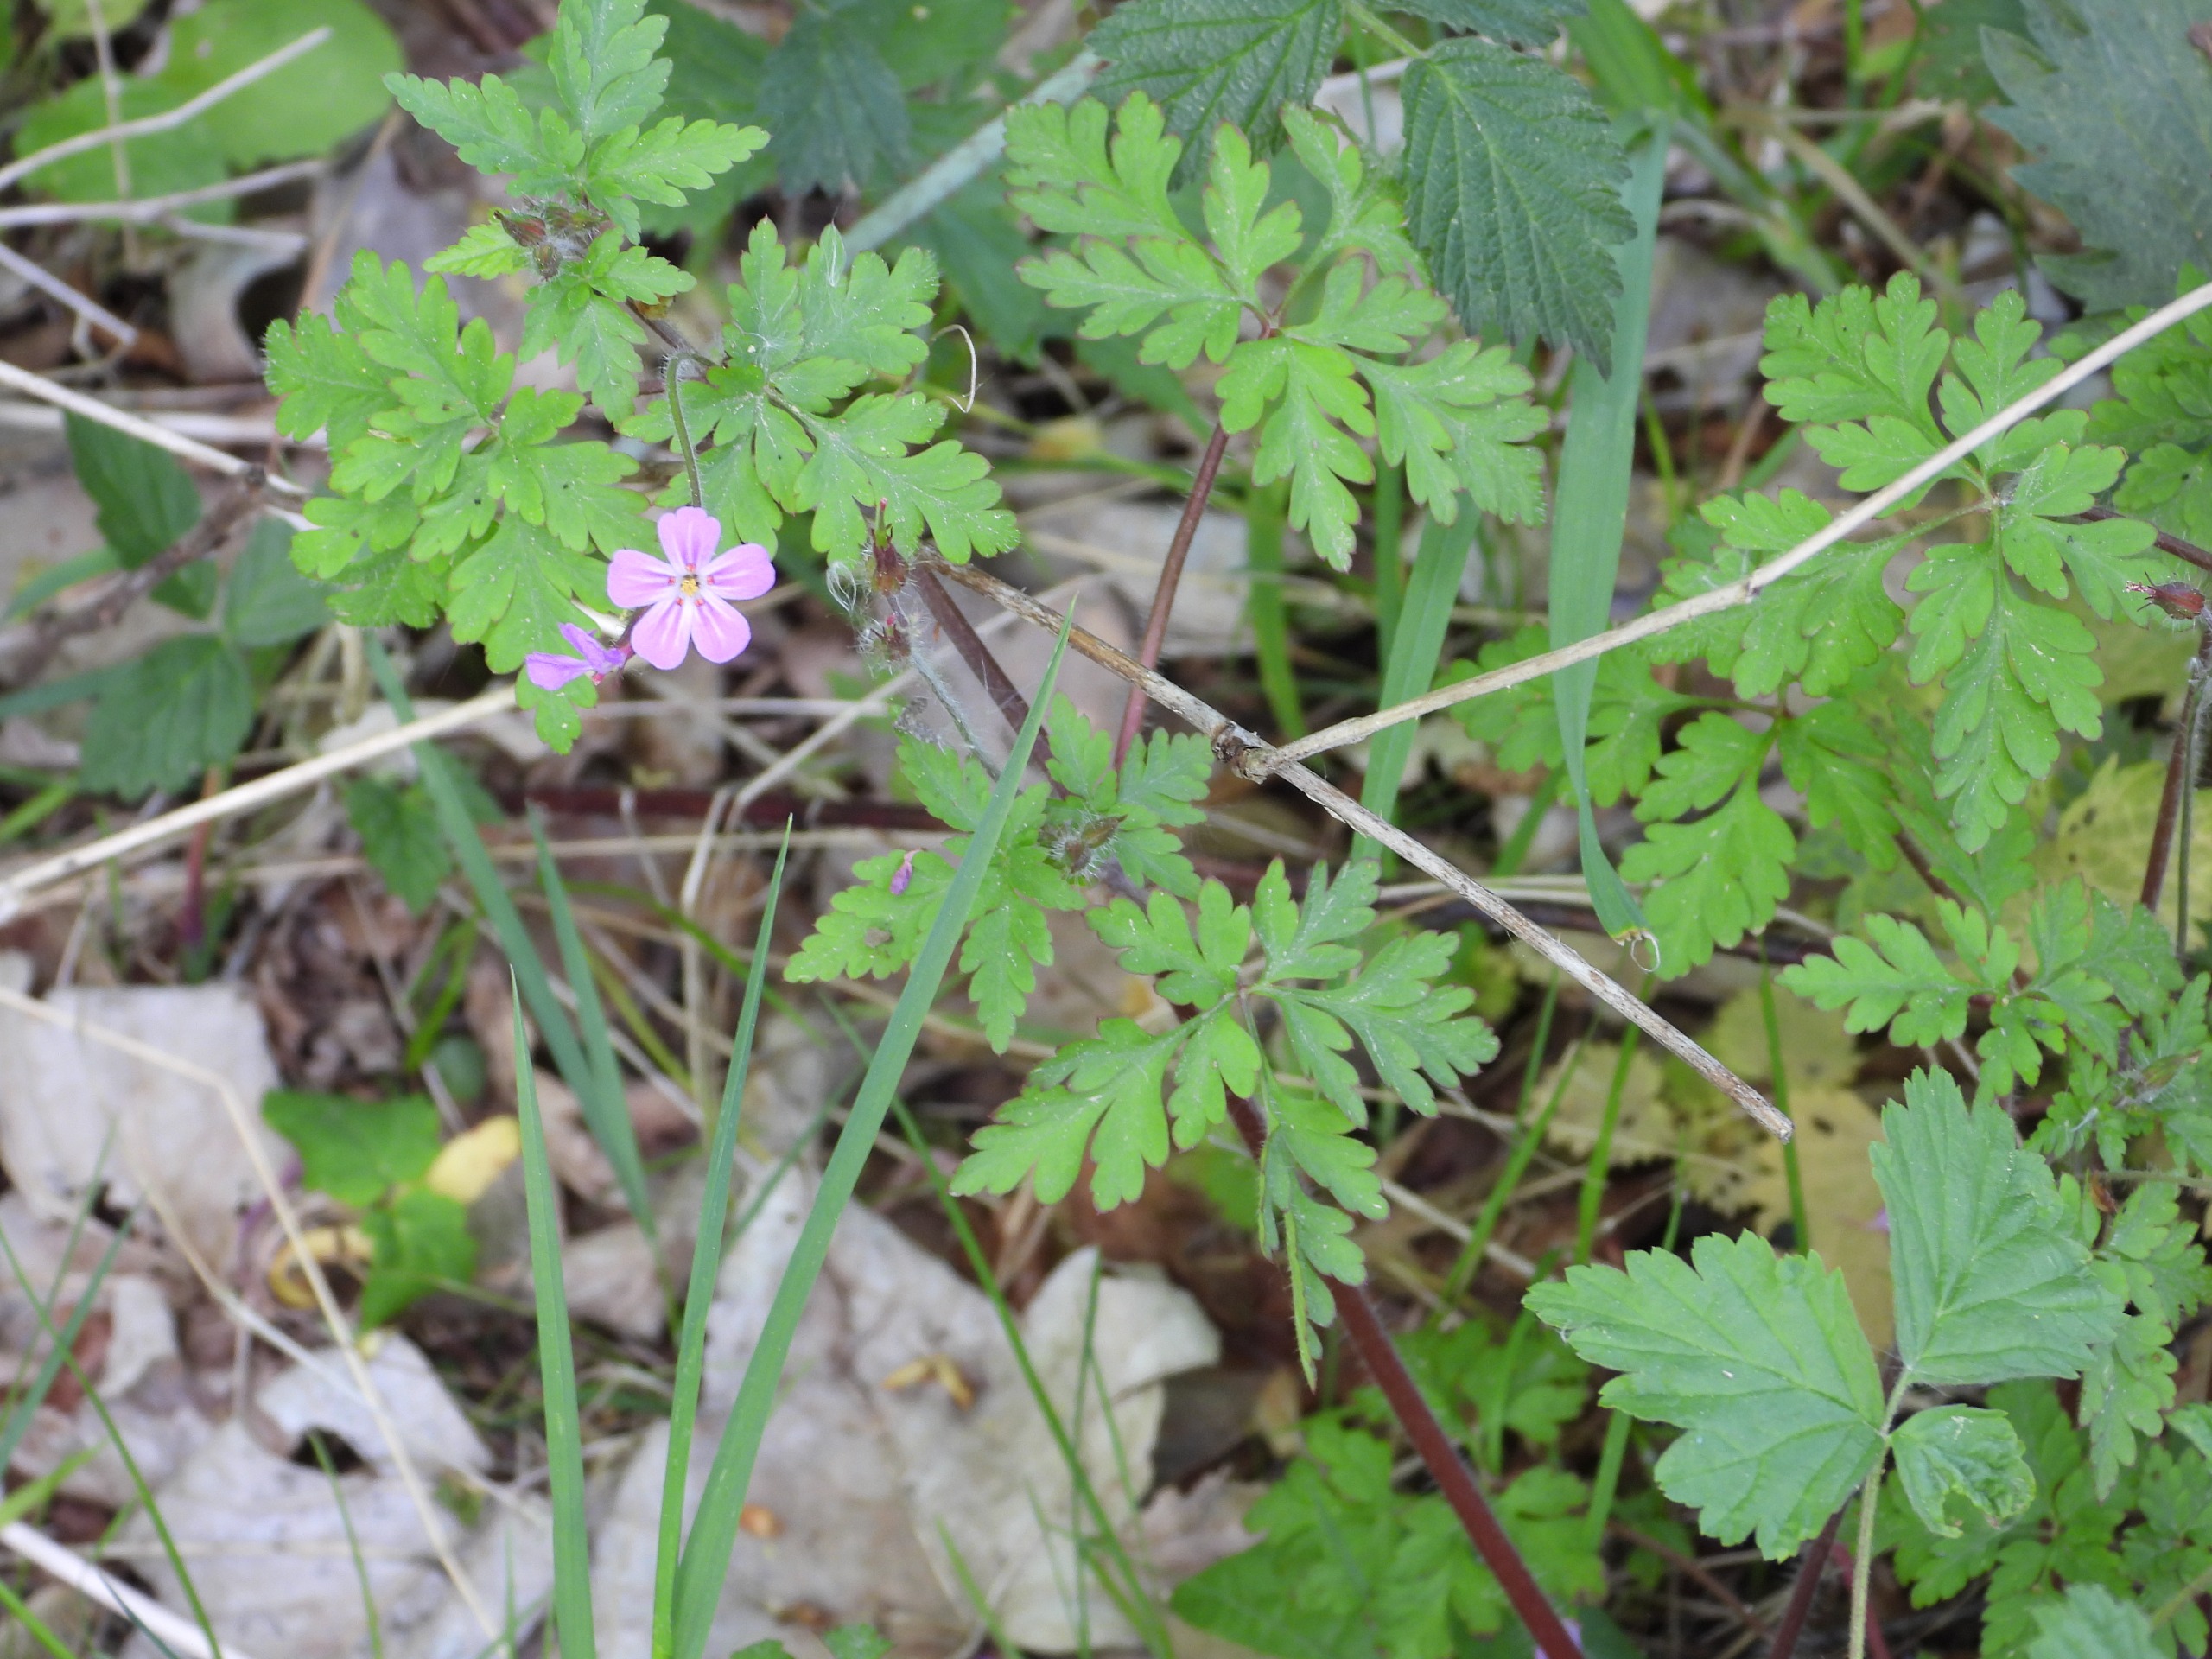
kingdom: Plantae
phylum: Tracheophyta
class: Magnoliopsida
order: Geraniales
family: Geraniaceae
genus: Geranium
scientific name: Geranium robertianum
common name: Stinkende storkenæb
